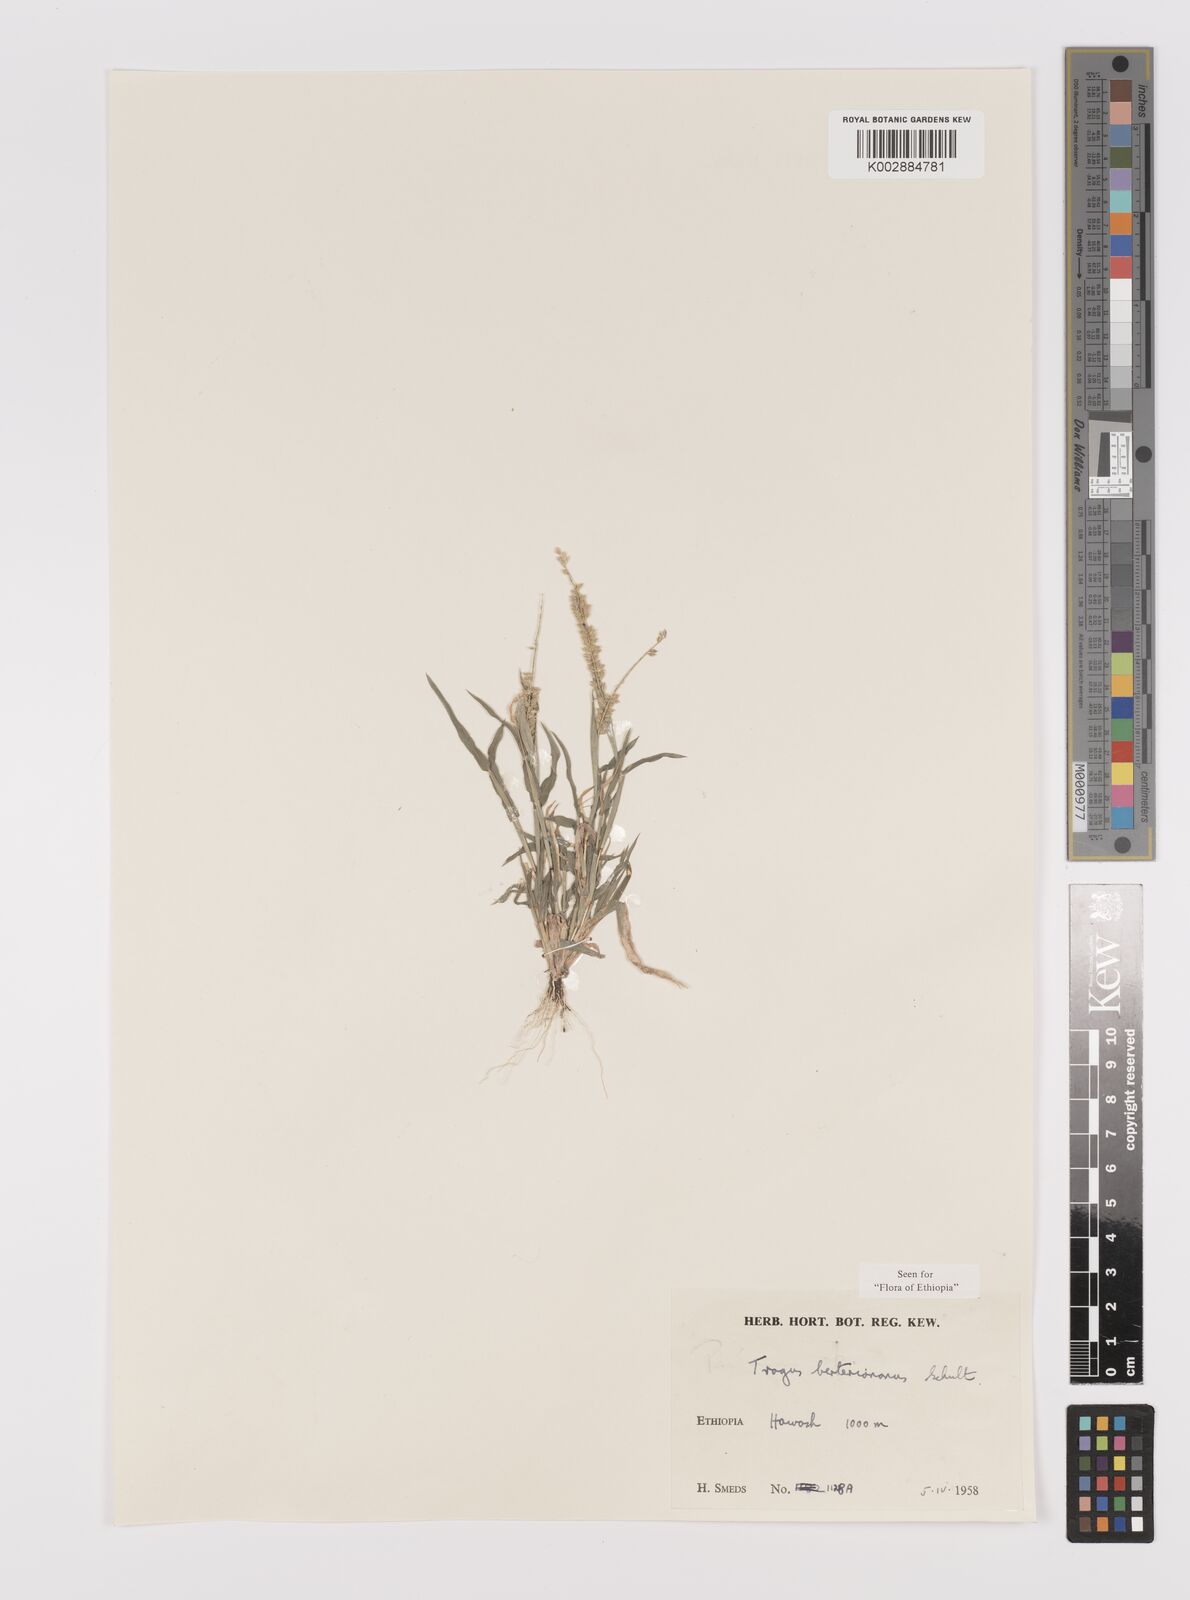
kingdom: Plantae
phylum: Tracheophyta
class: Liliopsida
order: Poales
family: Poaceae
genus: Tragus
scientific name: Tragus berteronianus
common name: African bur-grass
